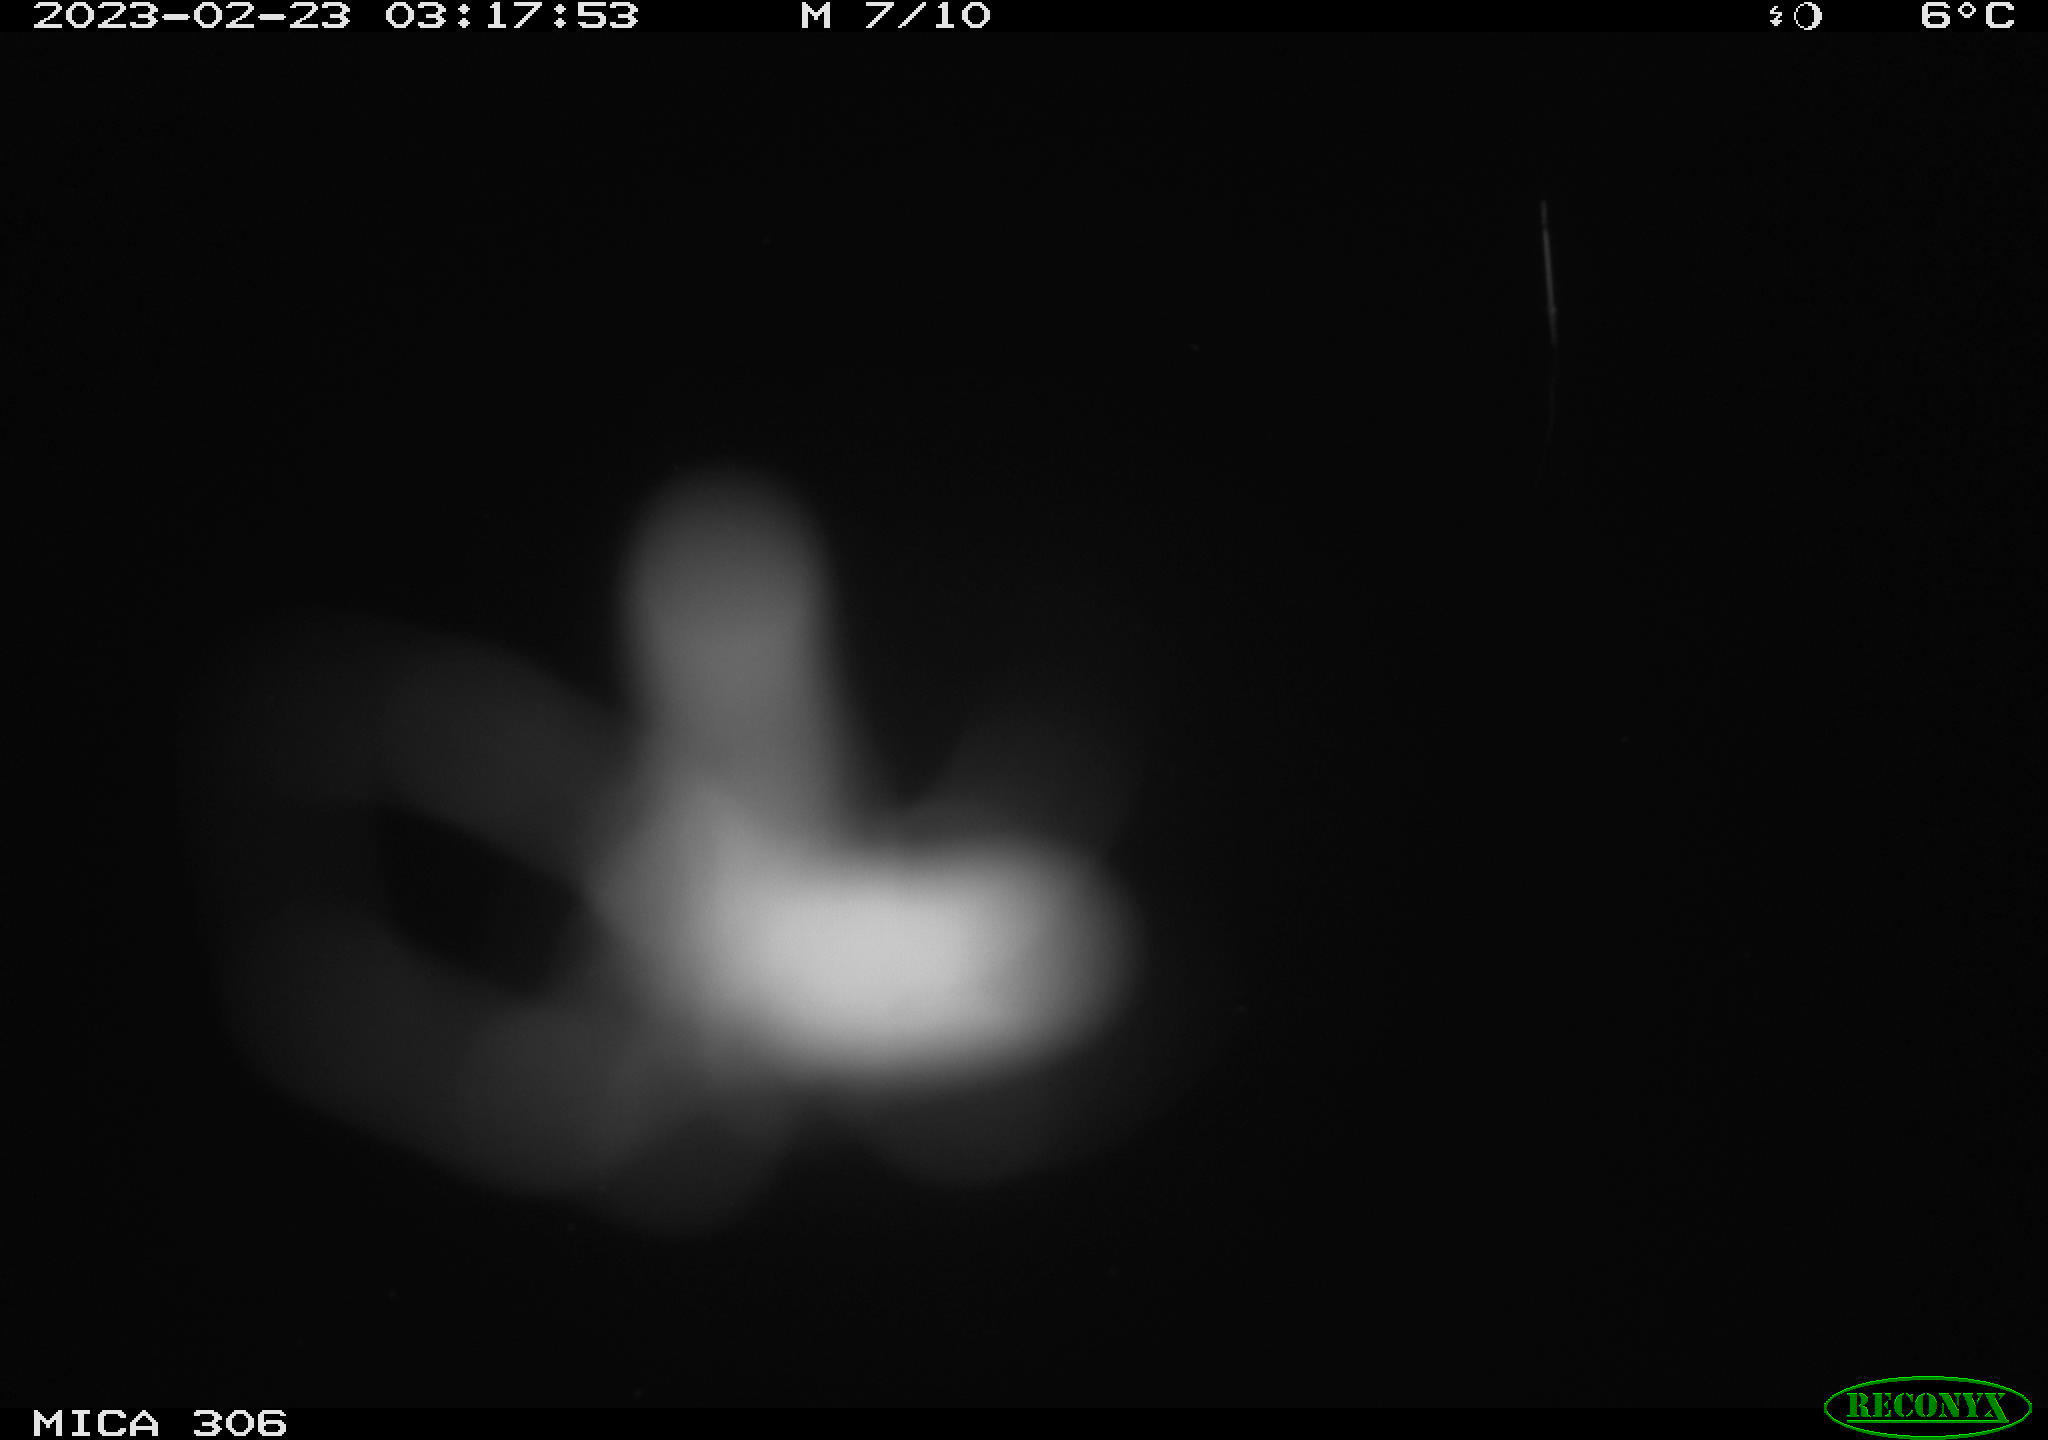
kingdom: Animalia
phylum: Chordata
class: Mammalia
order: Rodentia
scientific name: Rodentia
